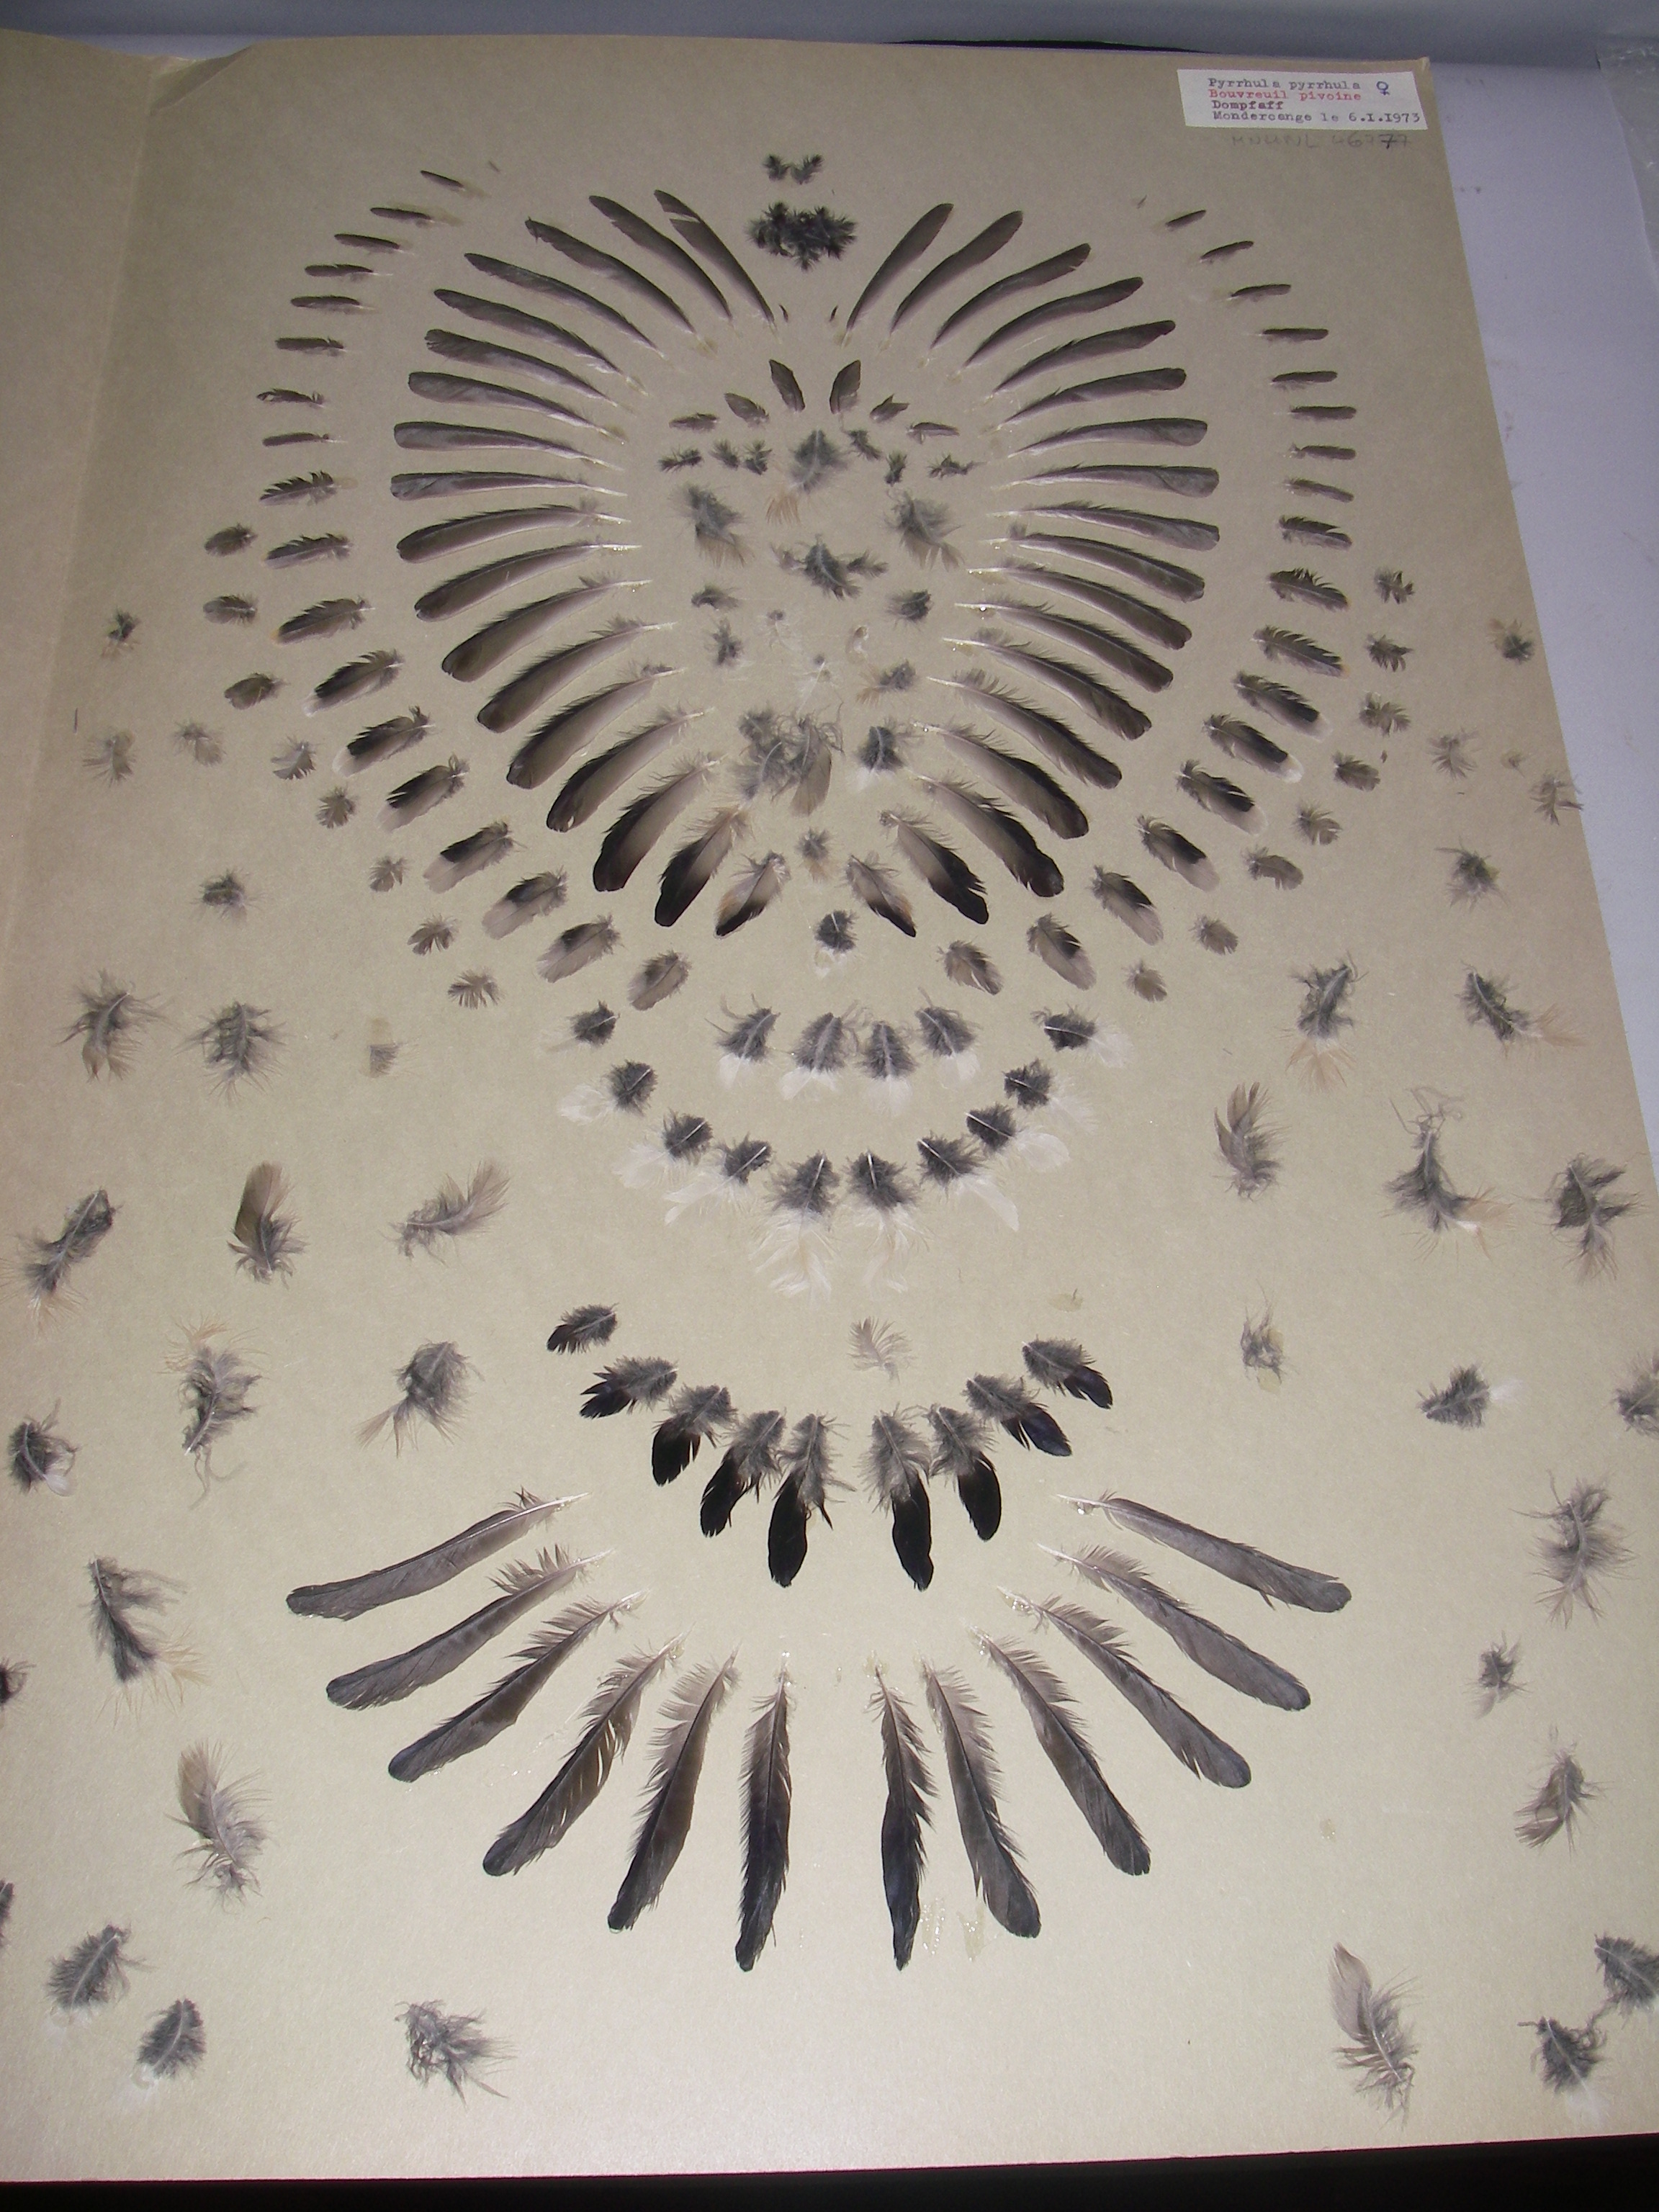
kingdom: Animalia
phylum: Chordata
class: Aves
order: Passeriformes
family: Fringillidae
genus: Pyrrhula
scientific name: Pyrrhula pyrrhula
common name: Eurasian bullfinch
